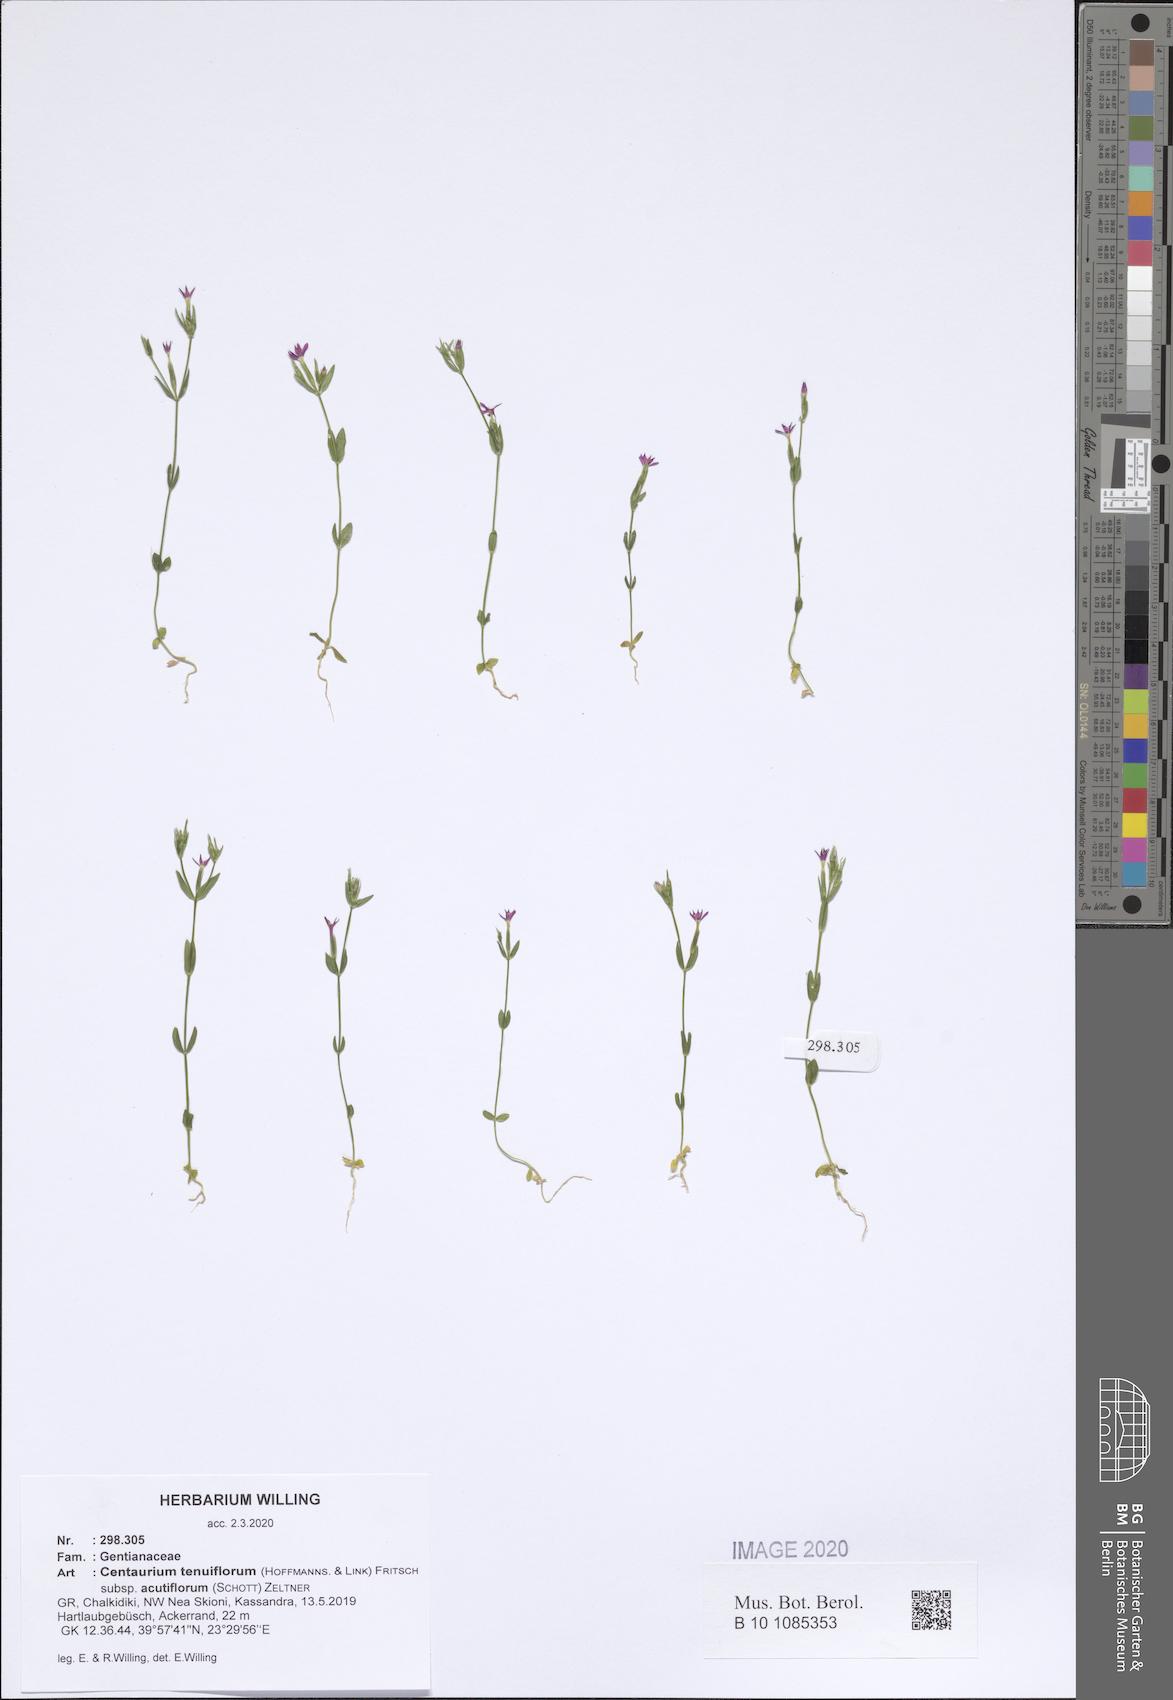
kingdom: Plantae
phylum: Tracheophyta
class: Magnoliopsida
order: Gentianales
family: Gentianaceae
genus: Centaurium
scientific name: Centaurium tenuiflorum
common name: Slender centaury
